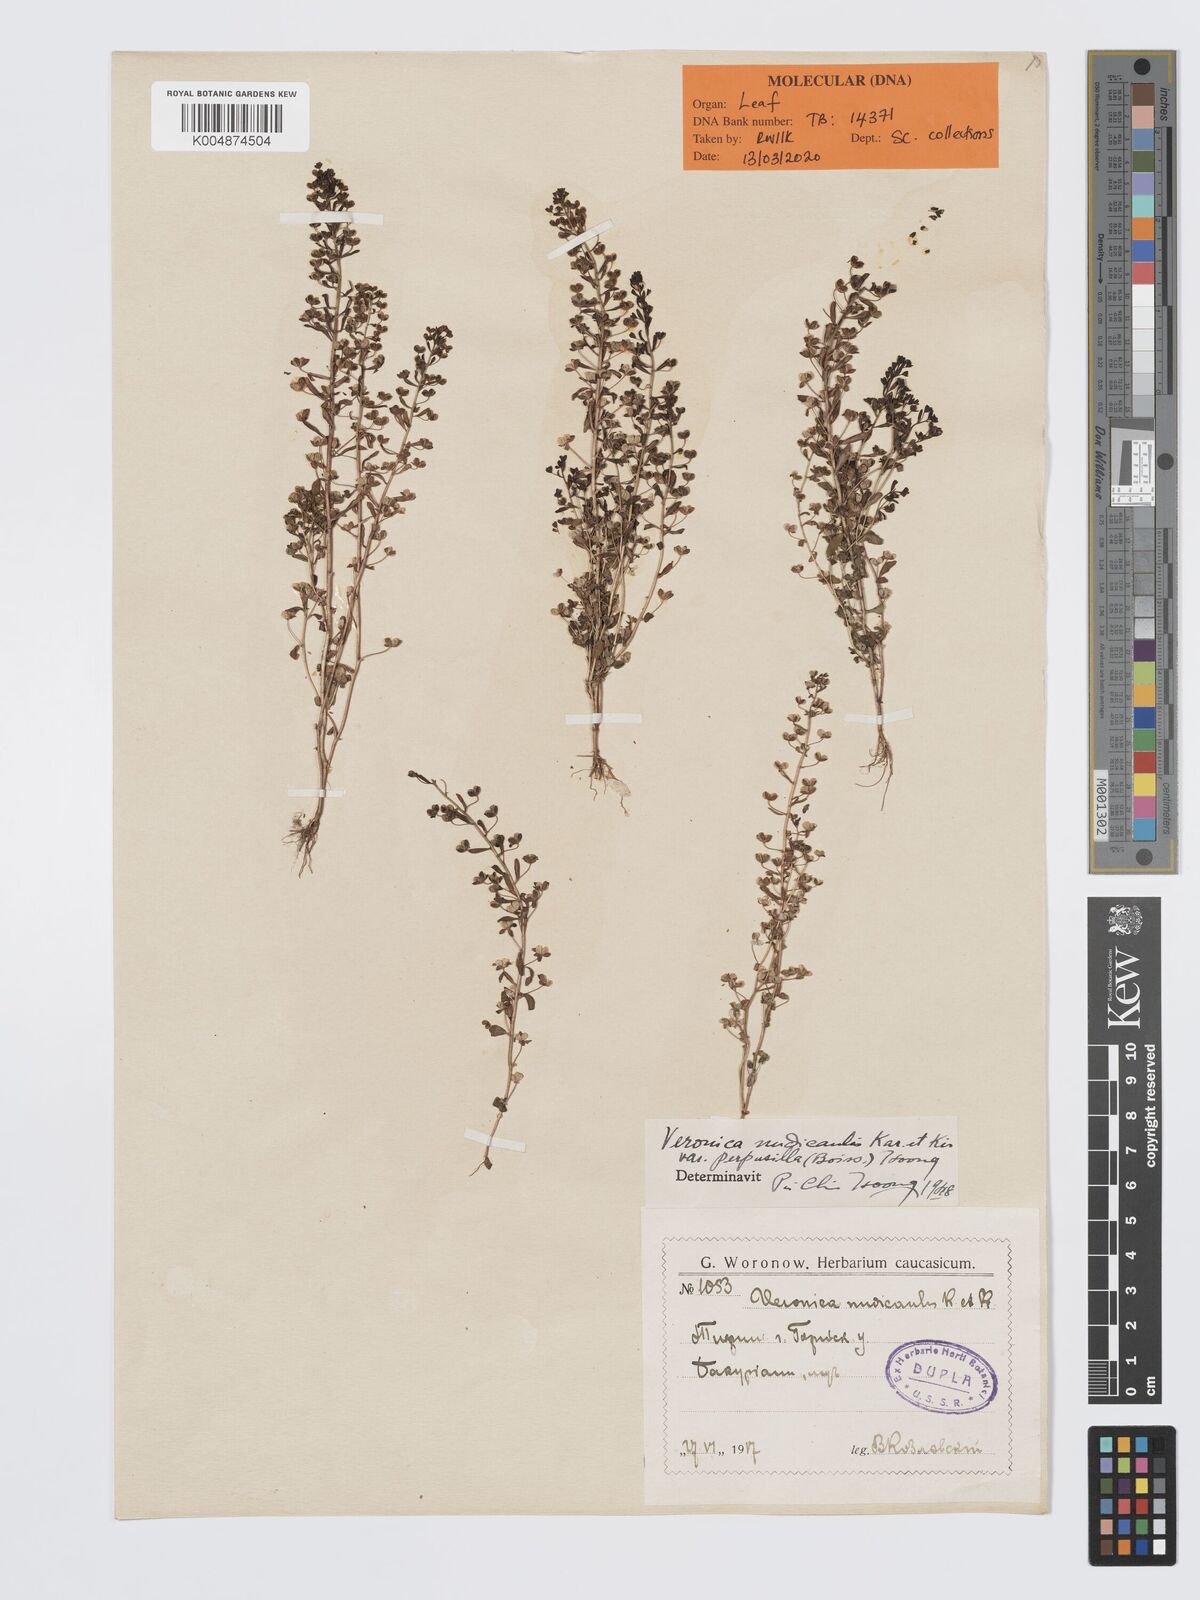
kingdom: Plantae
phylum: Tracheophyta
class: Magnoliopsida
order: Lamiales
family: Plantaginaceae
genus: Veronica
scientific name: Veronica pusilla
